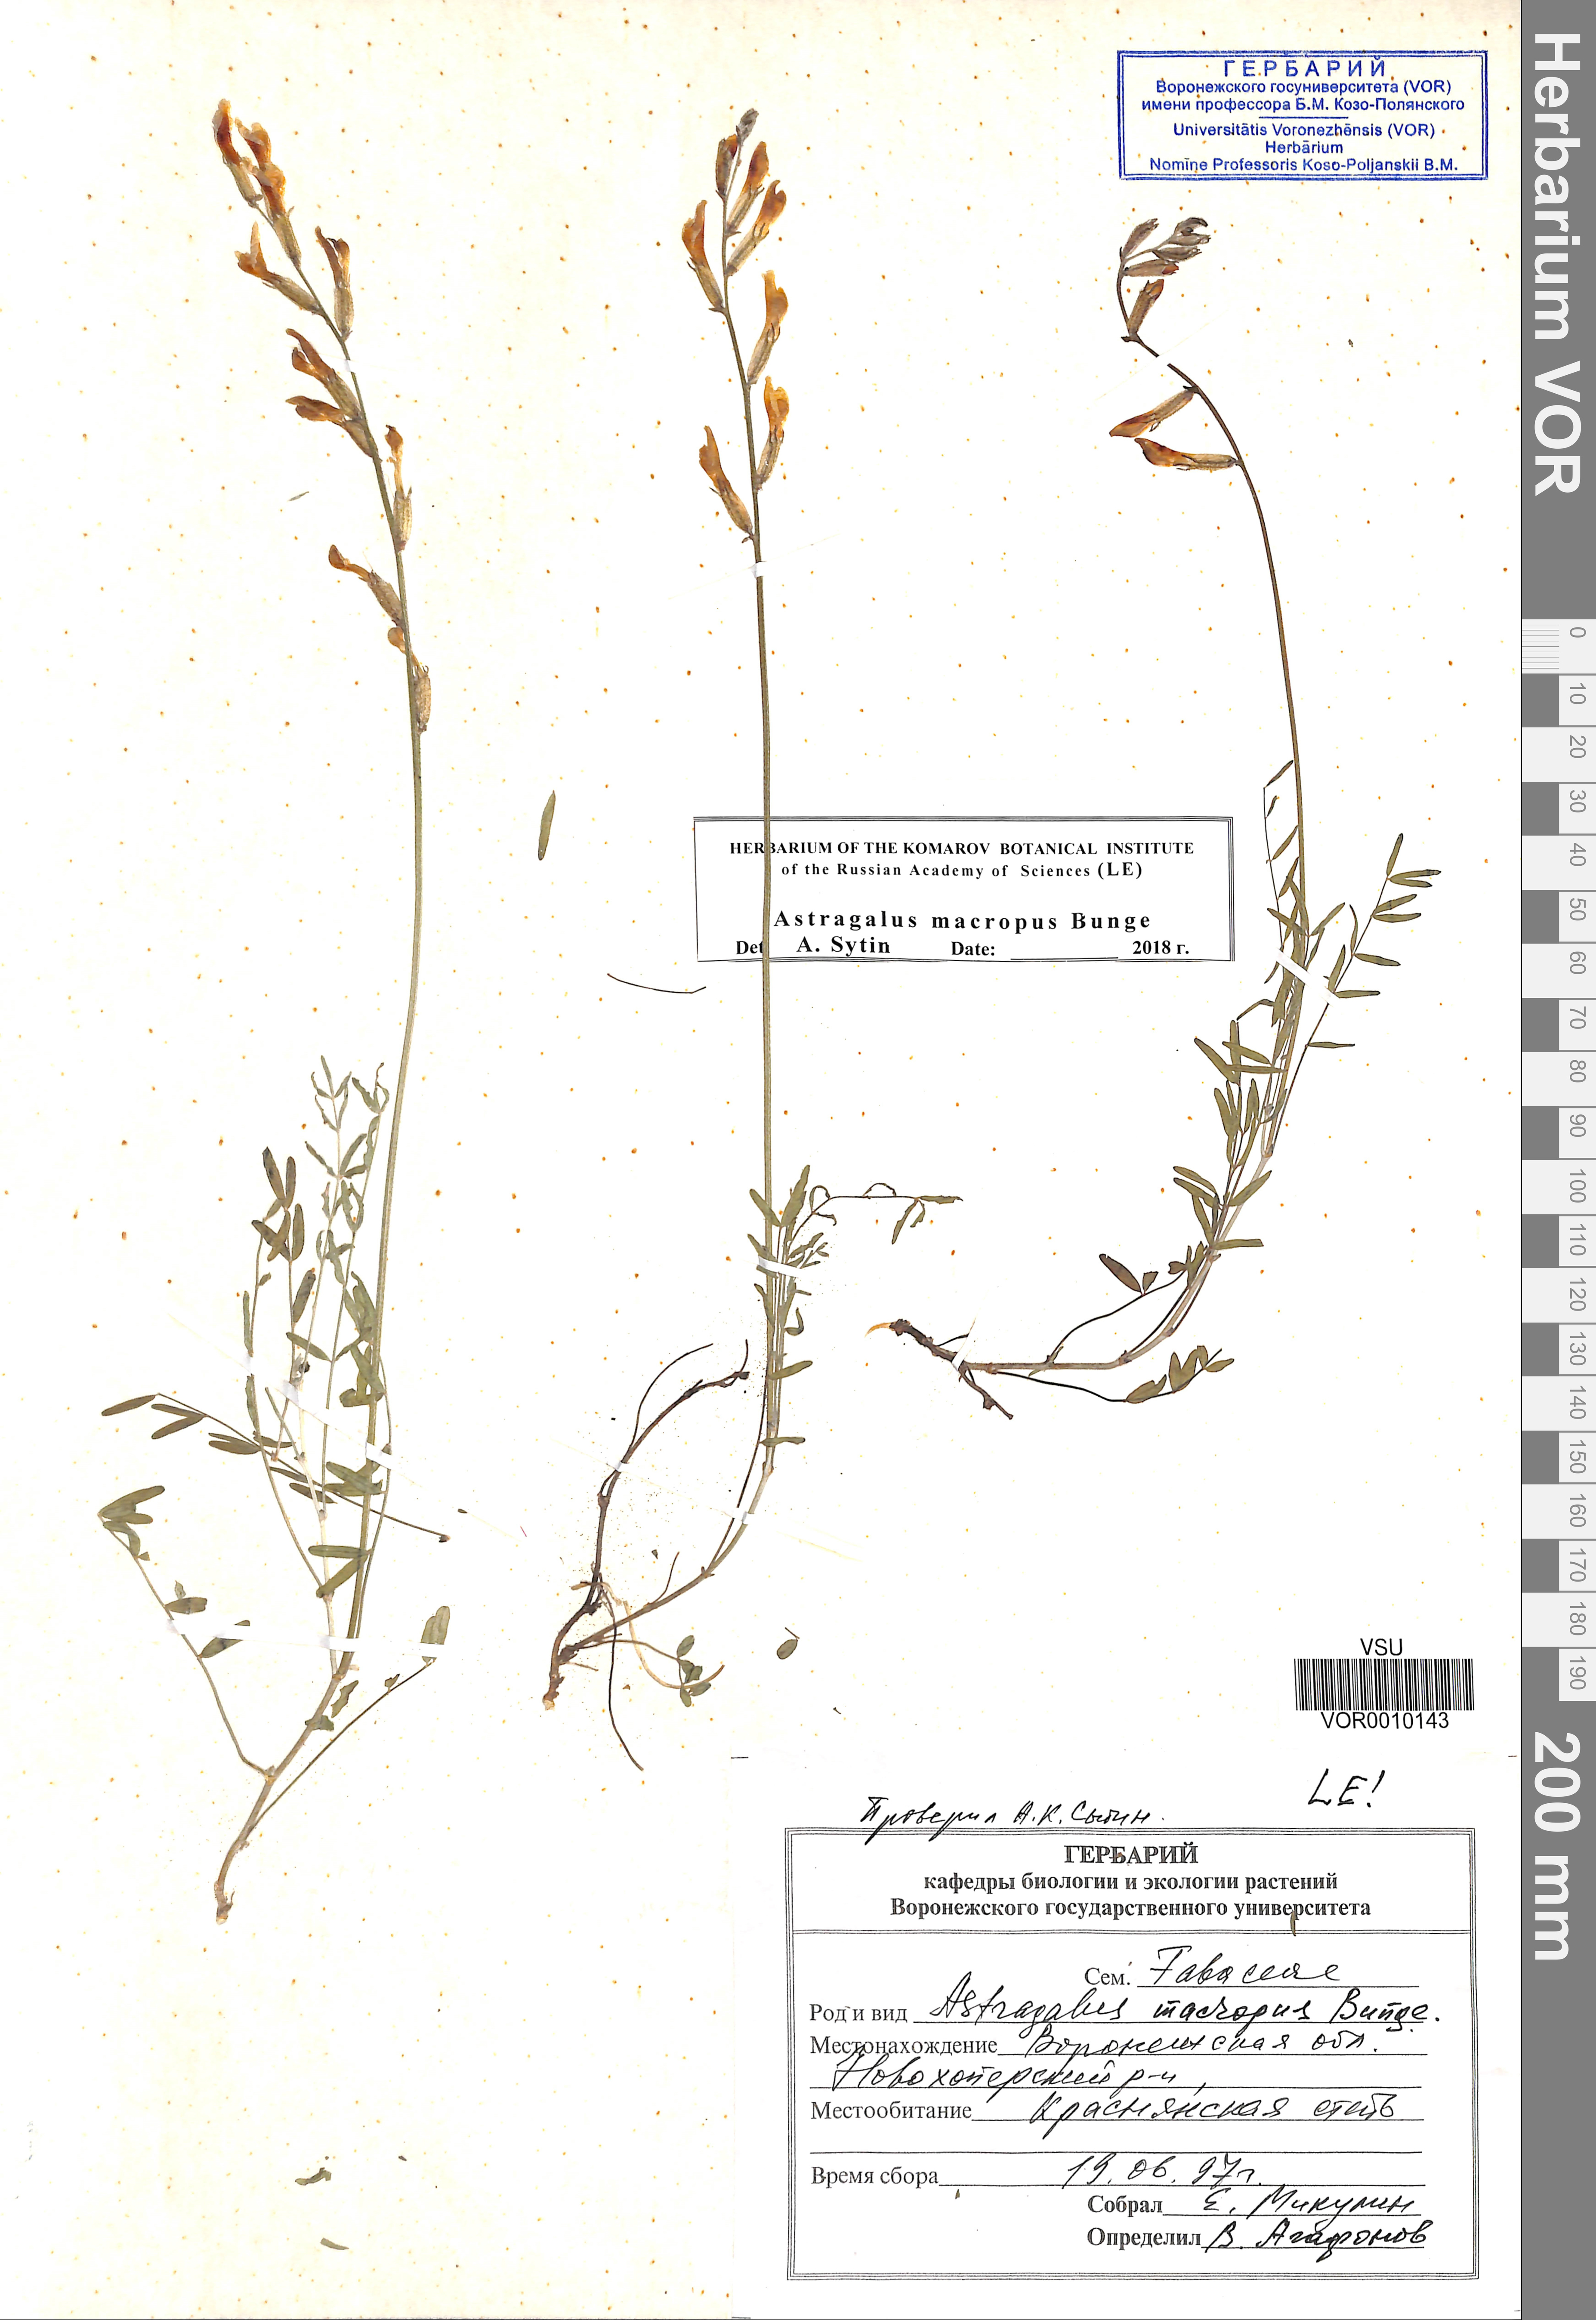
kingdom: Plantae
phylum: Tracheophyta
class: Magnoliopsida
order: Fabales
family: Fabaceae
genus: Astragalus
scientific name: Astragalus macropus
